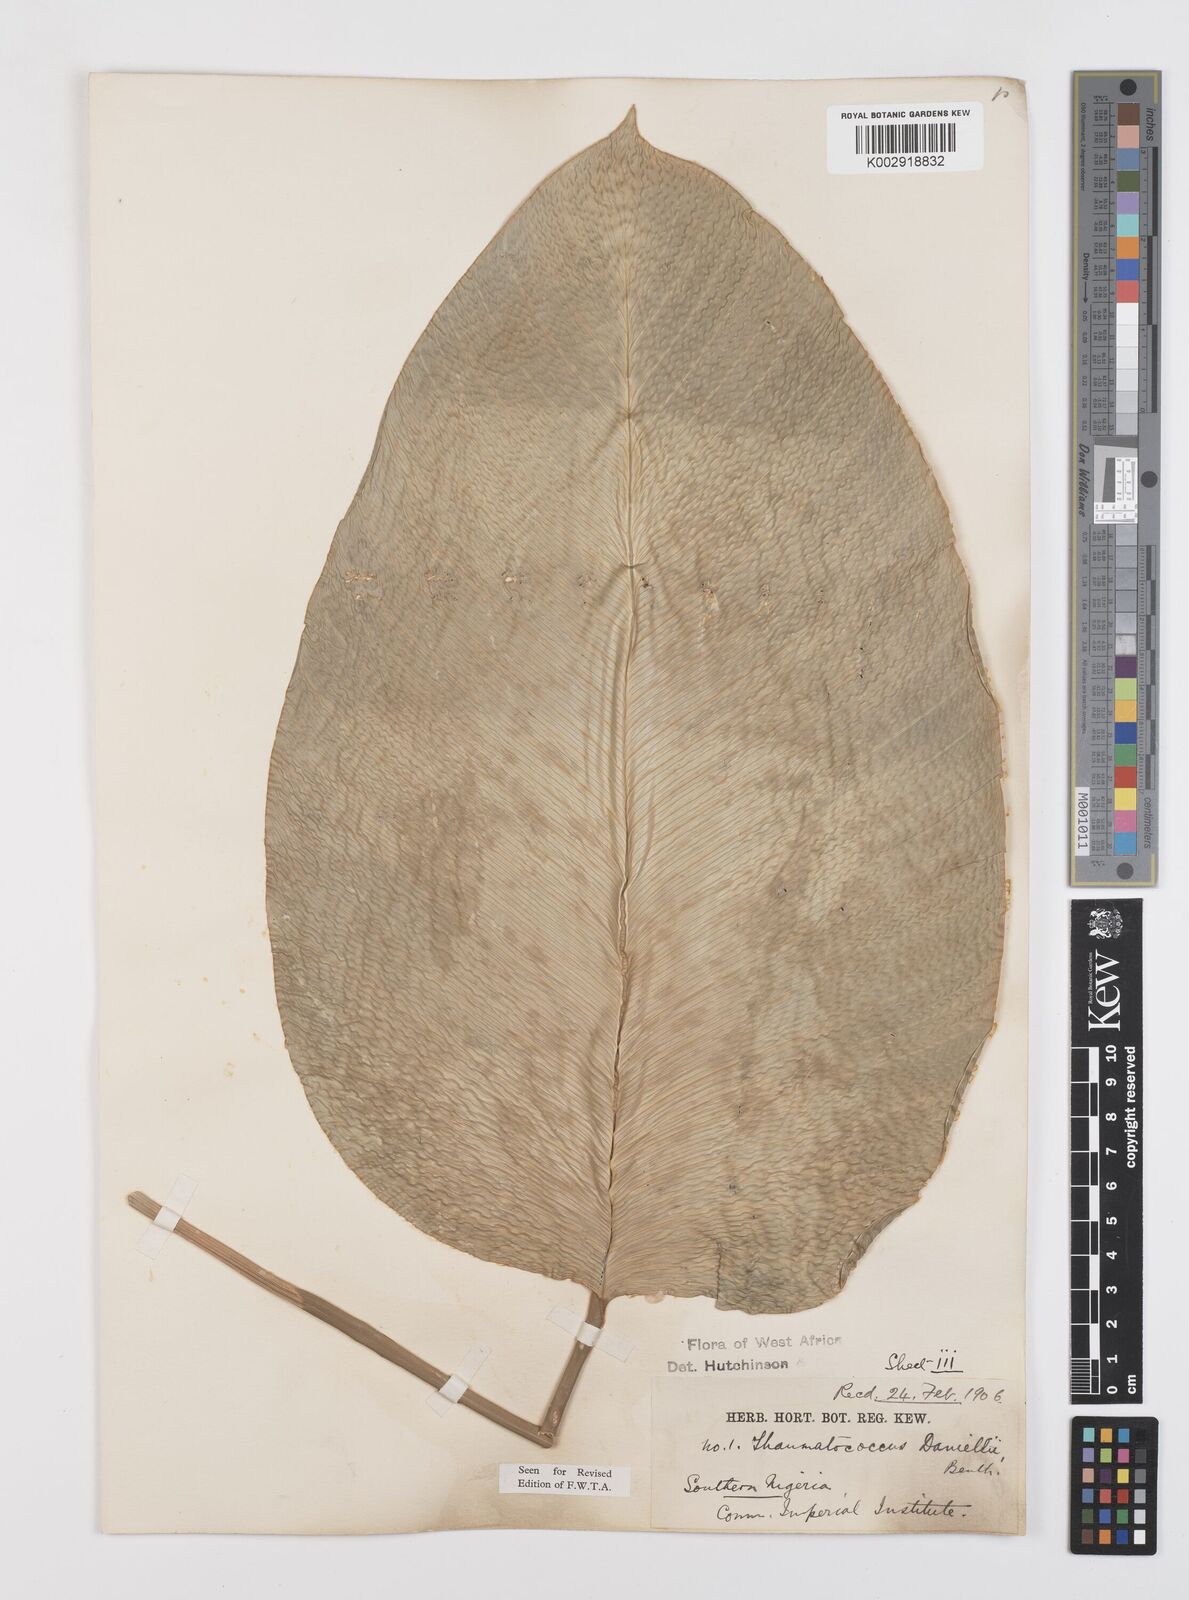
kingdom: Plantae
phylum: Tracheophyta
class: Liliopsida
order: Zingiberales
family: Marantaceae
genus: Thaumatococcus
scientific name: Thaumatococcus daniellii
